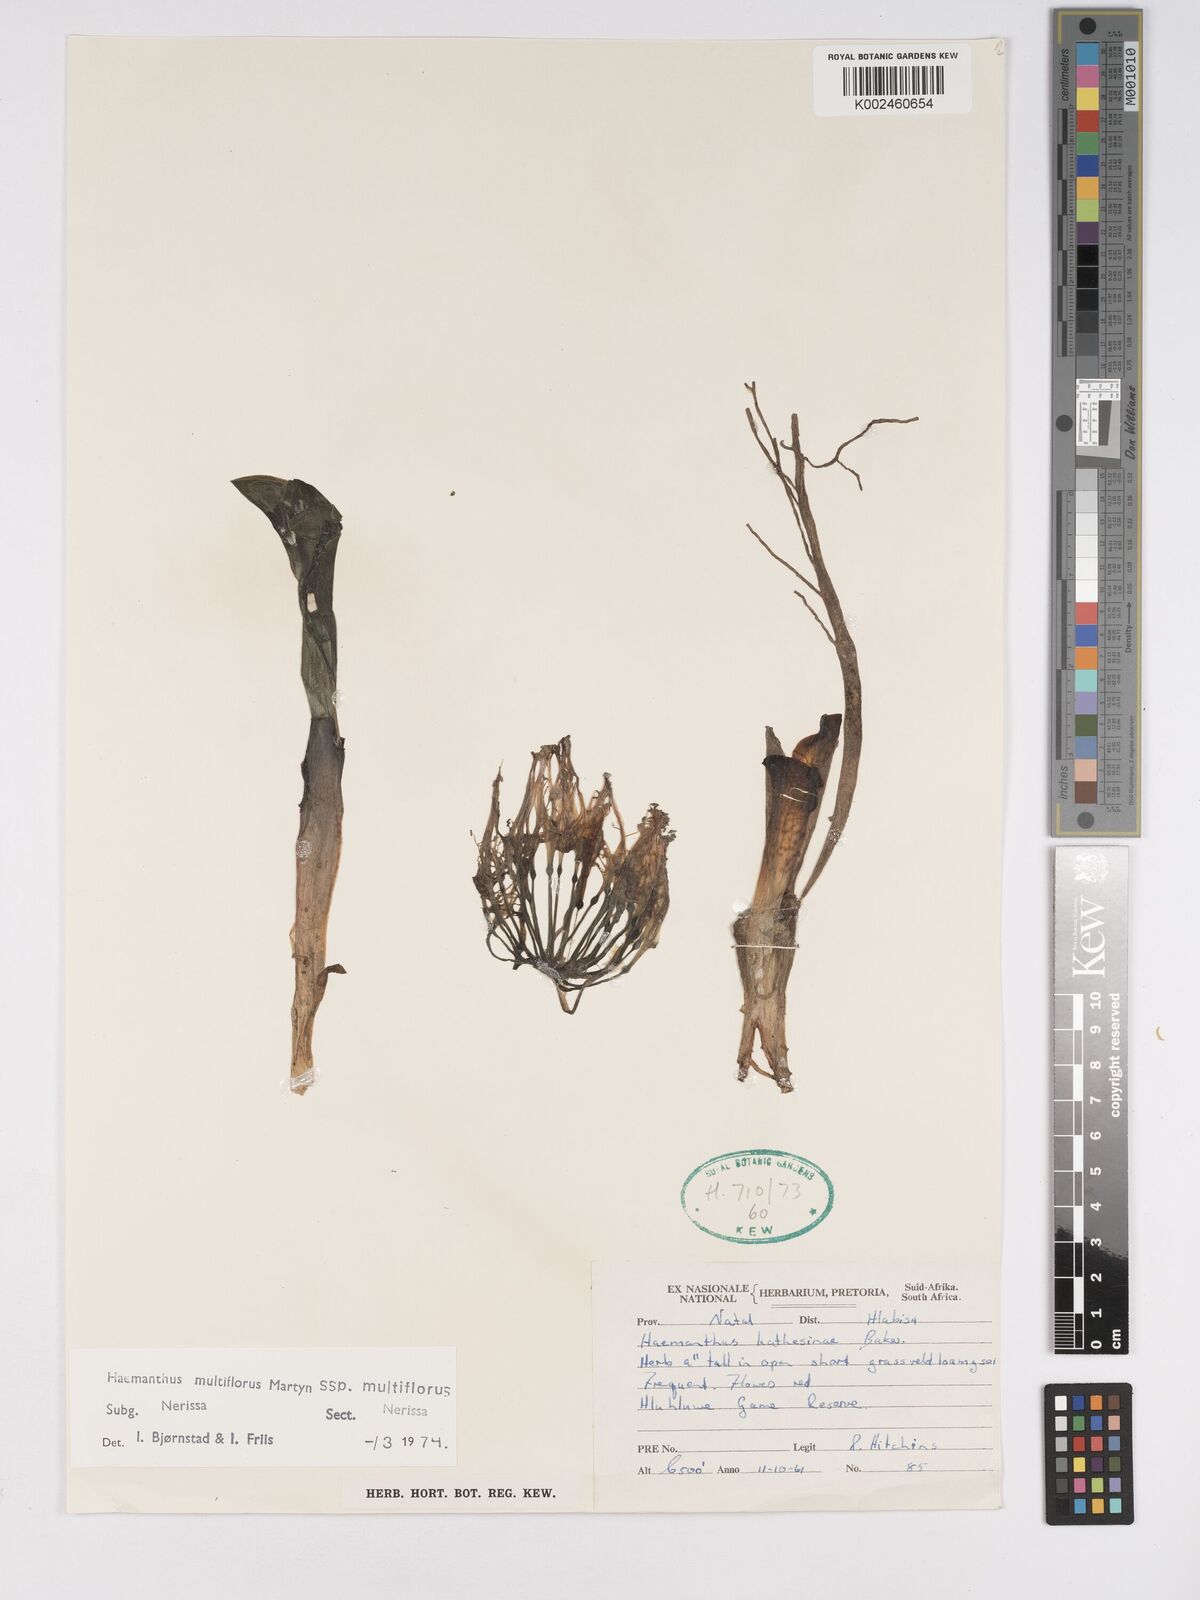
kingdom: Plantae
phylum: Tracheophyta
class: Liliopsida
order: Asparagales
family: Amaryllidaceae
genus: Scadoxus
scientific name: Scadoxus multiflorus
